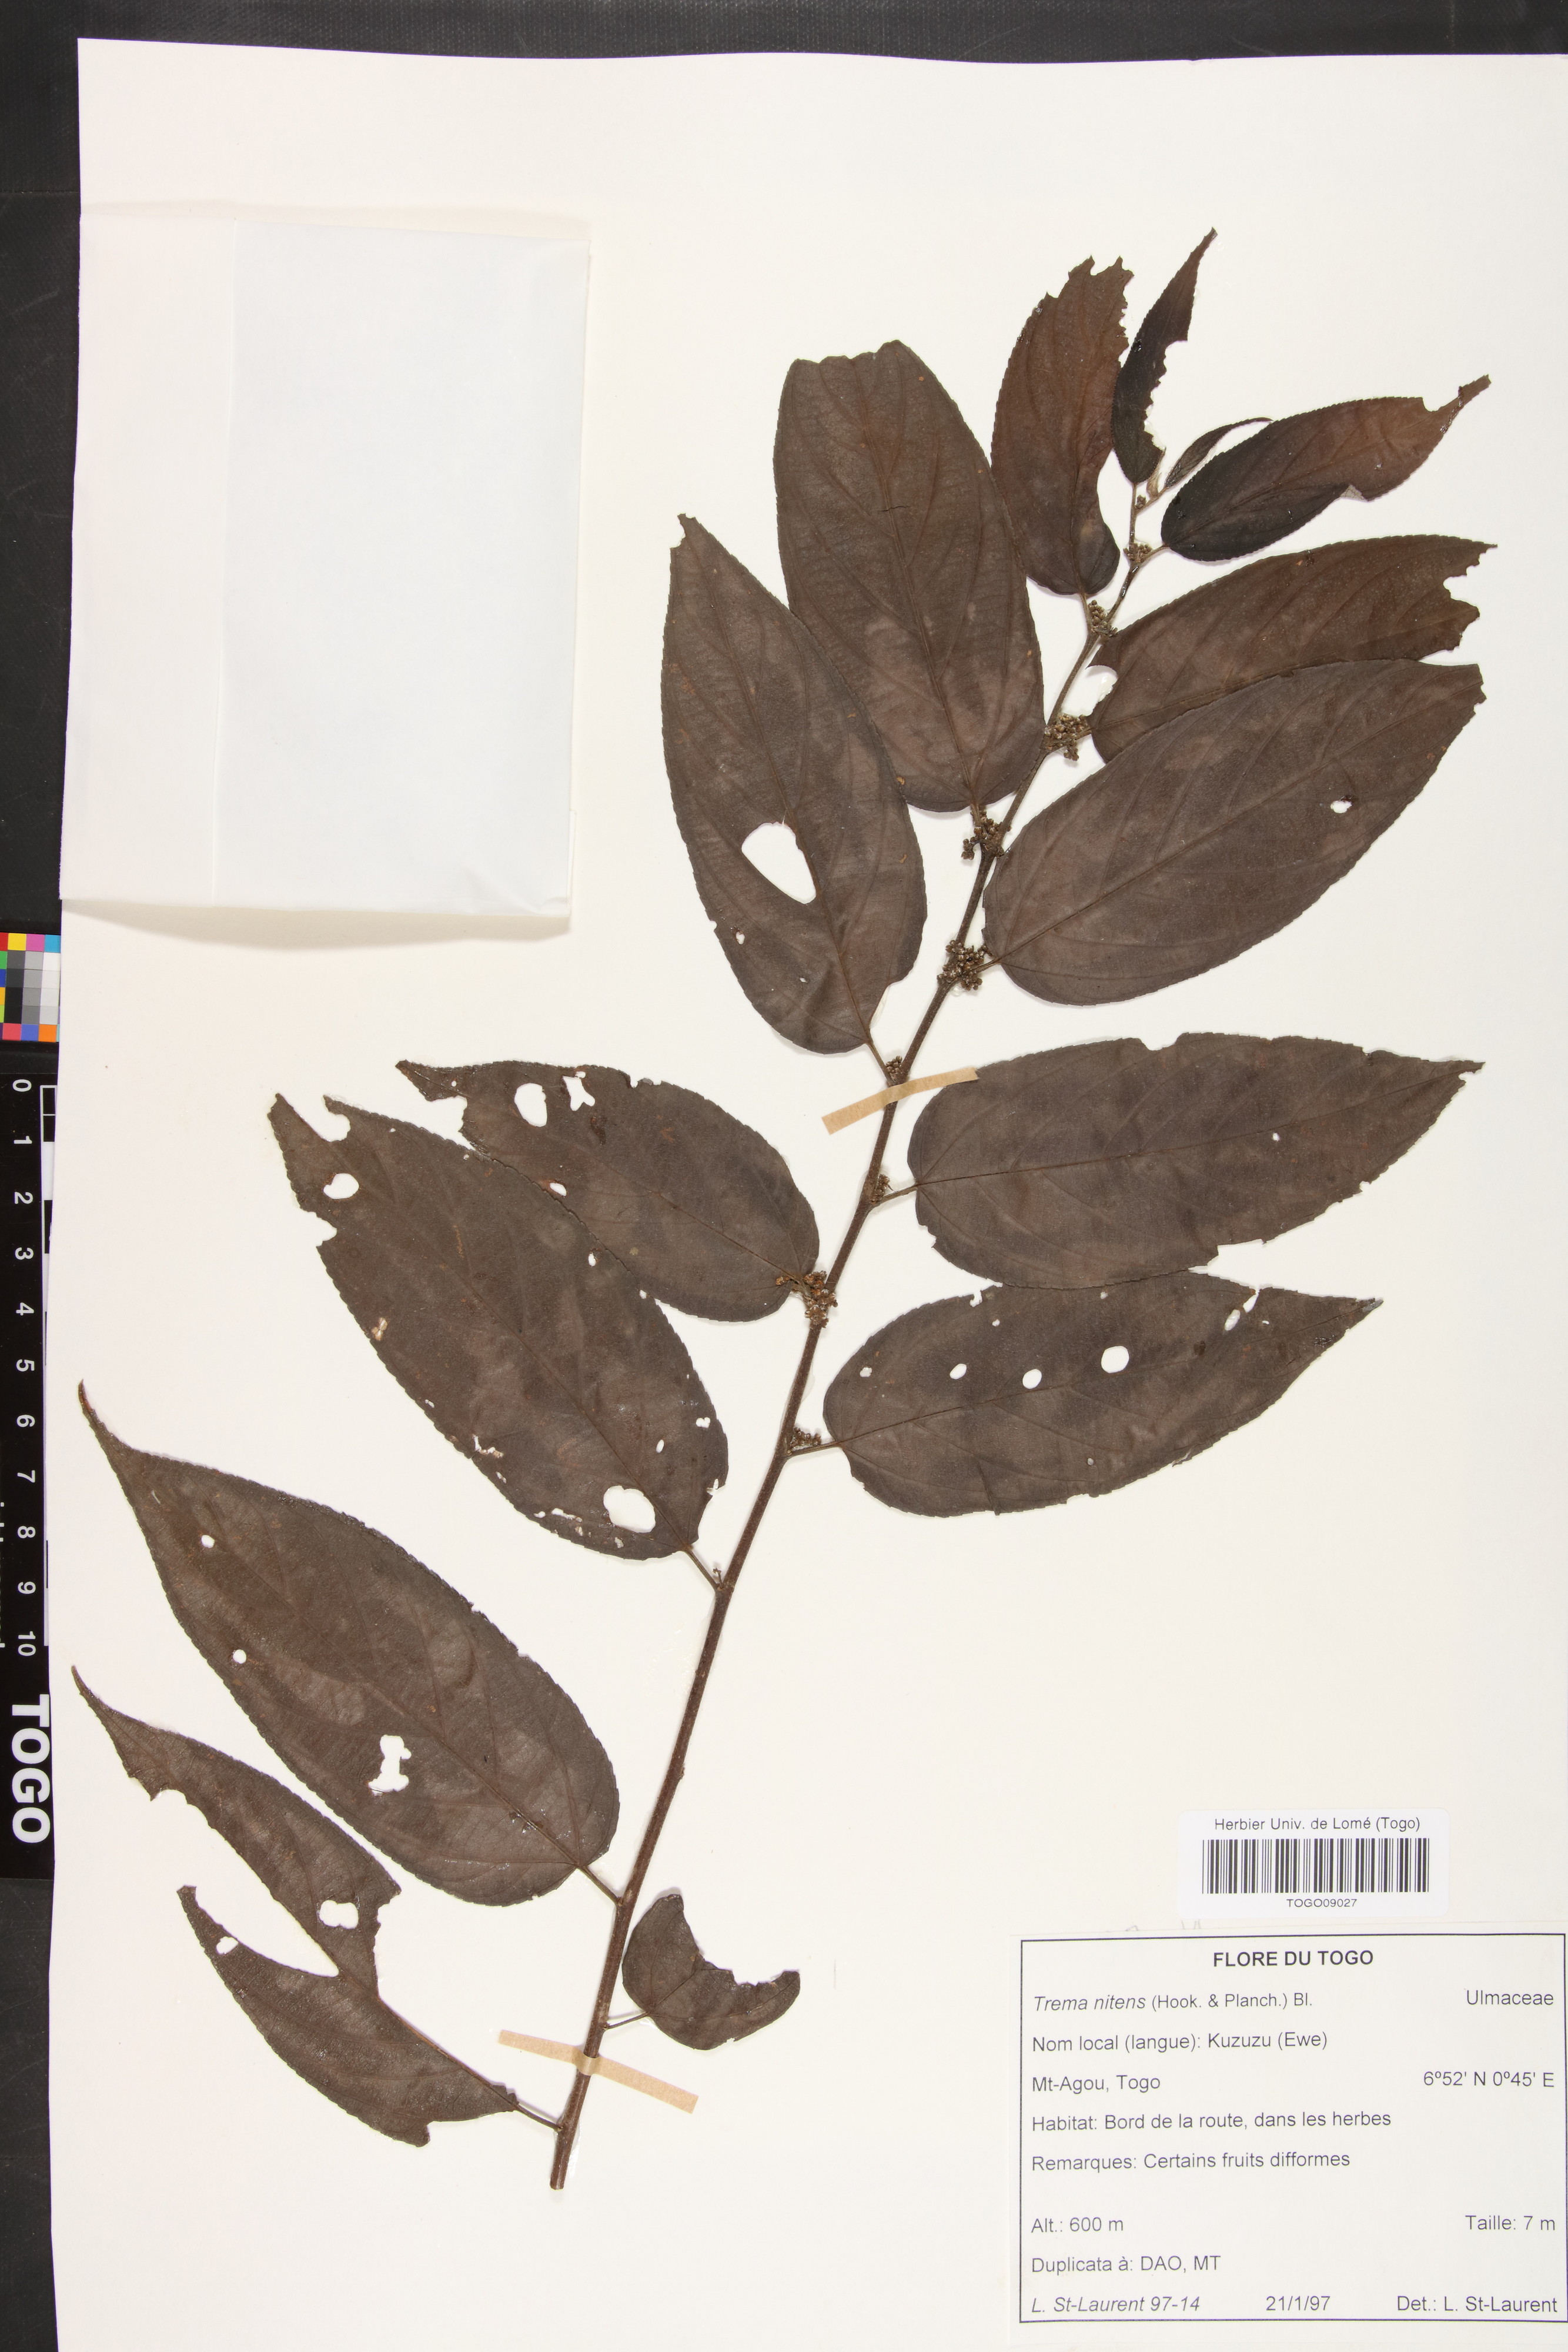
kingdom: Plantae
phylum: Tracheophyta
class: Magnoliopsida
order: Rosales
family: Cannabaceae
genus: Trema
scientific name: Trema orientale
